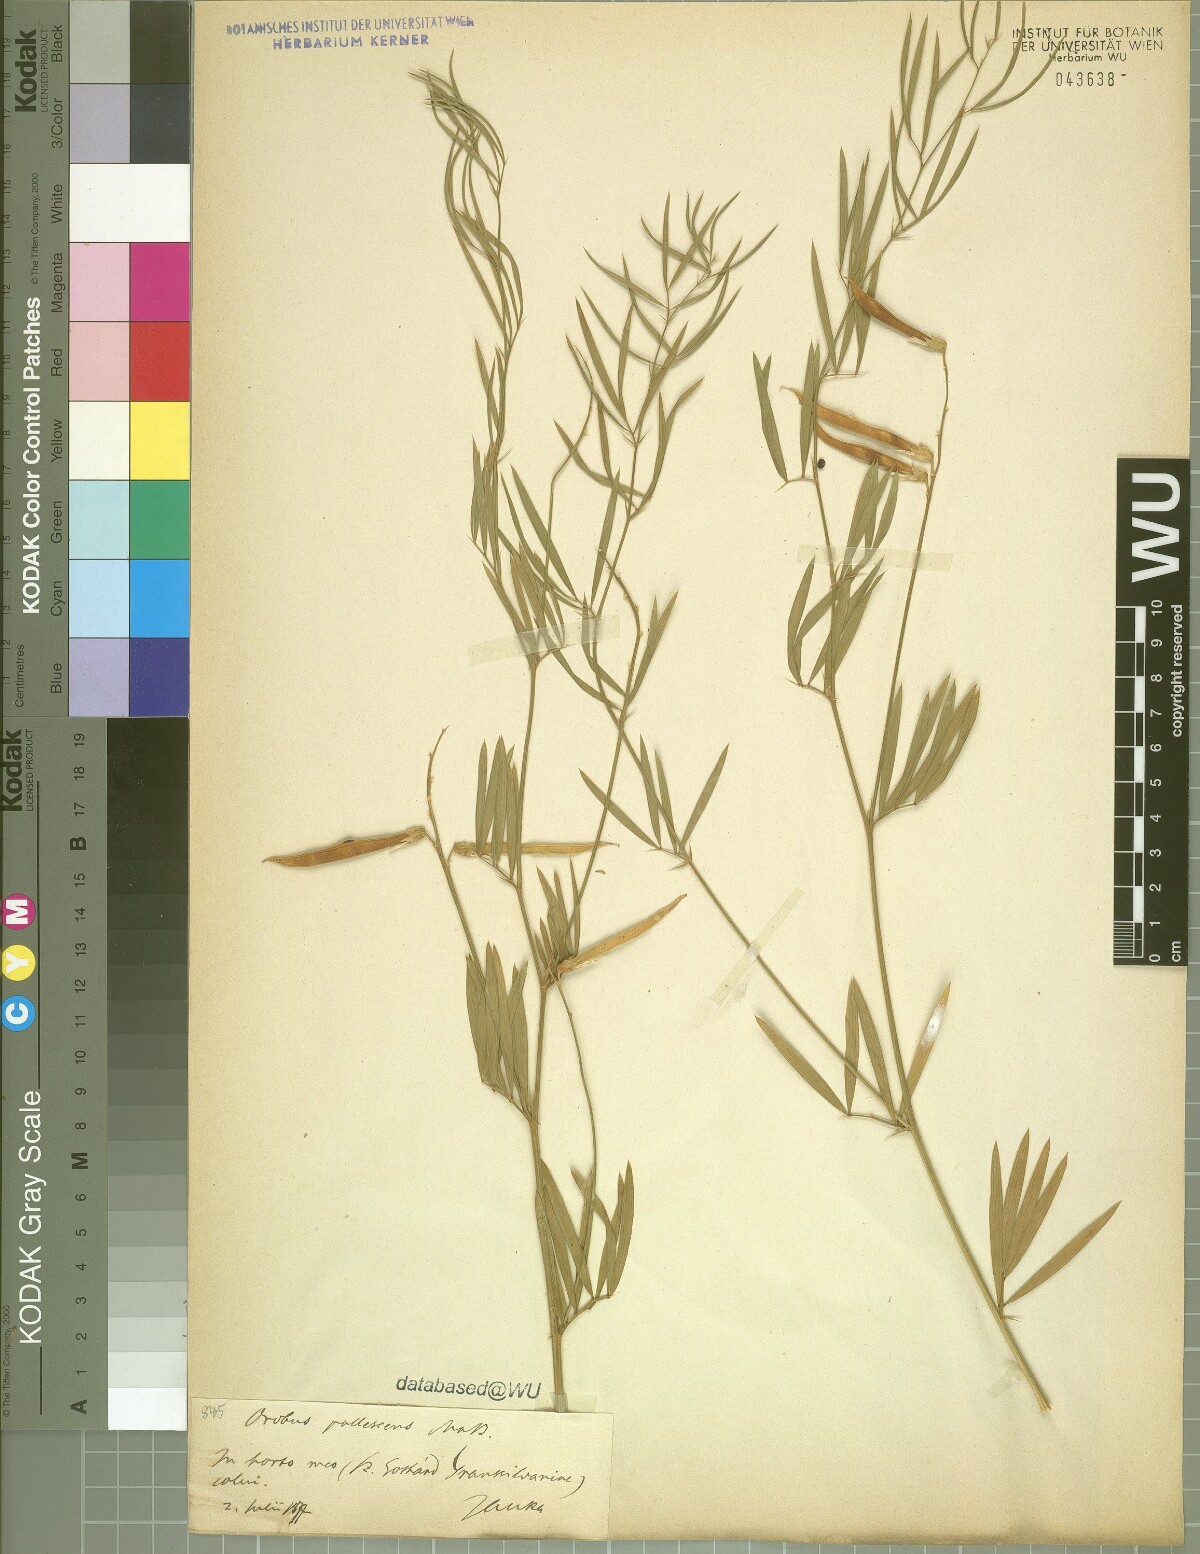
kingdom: Plantae
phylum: Tracheophyta
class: Magnoliopsida
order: Fabales
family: Fabaceae
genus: Lathyrus
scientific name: Lathyrus pallescens
